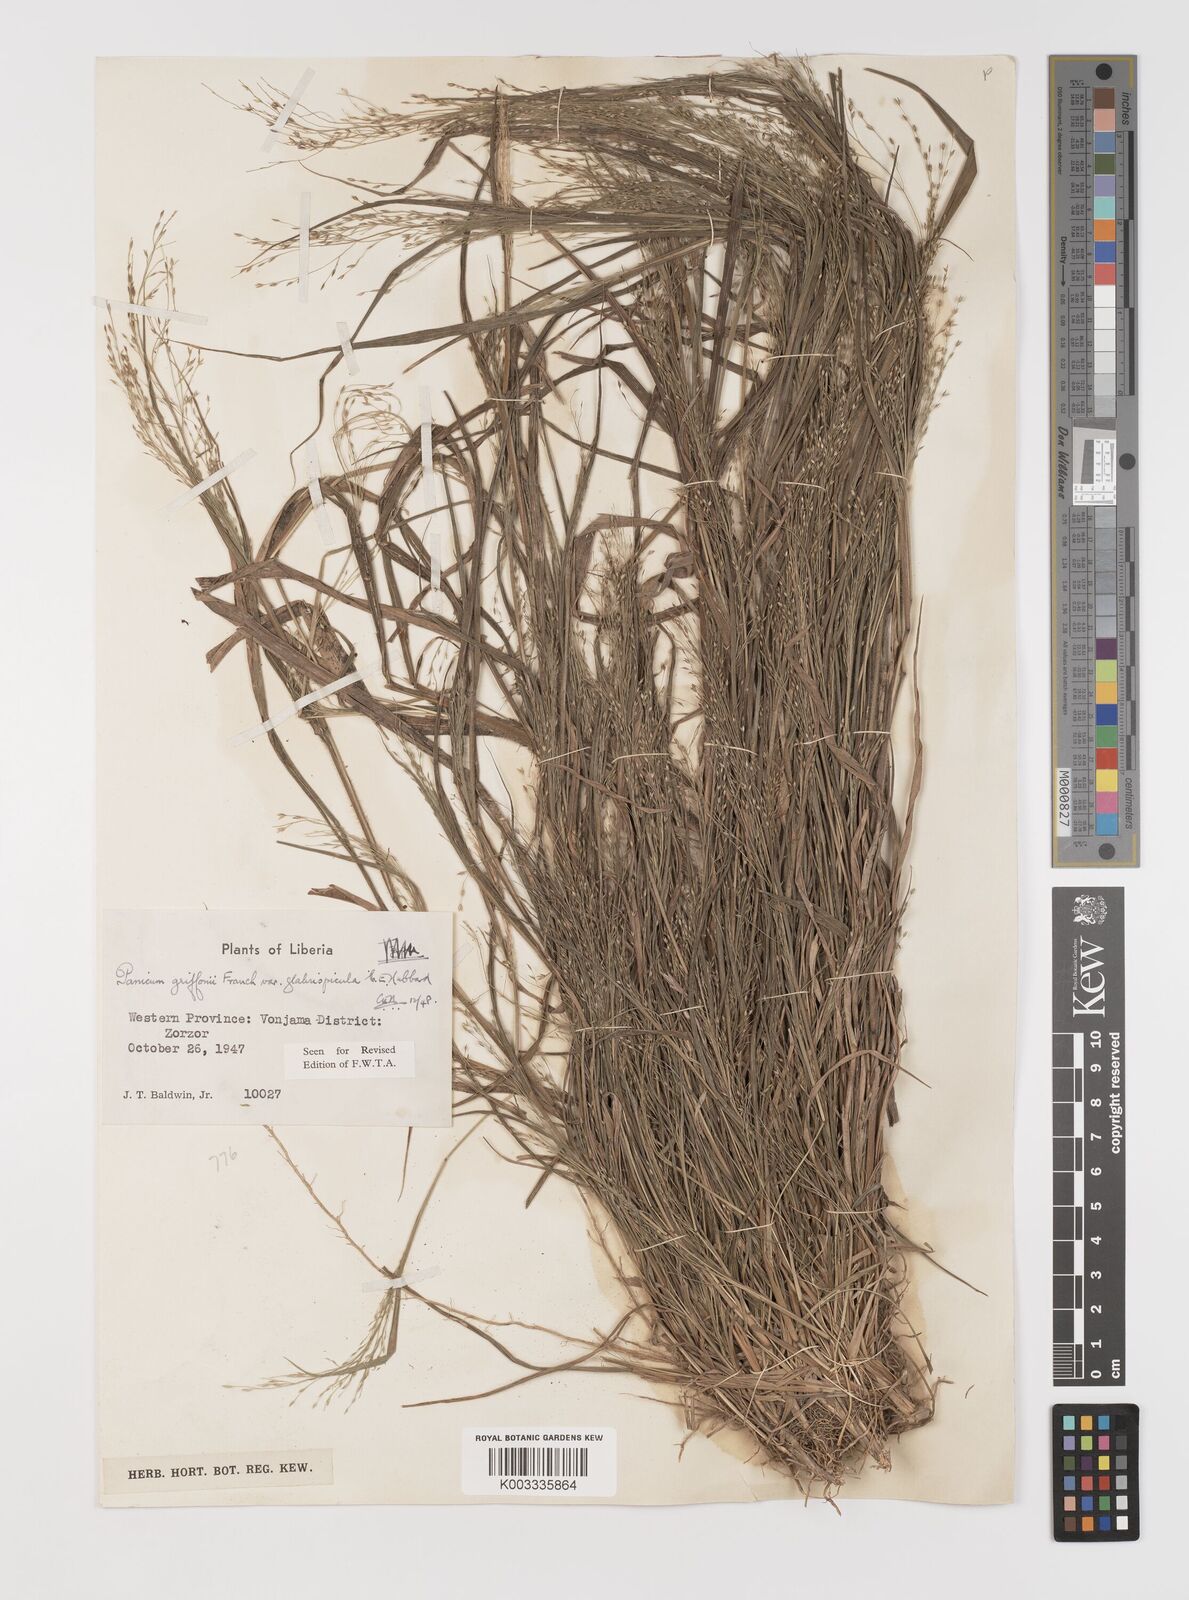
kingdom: Plantae
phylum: Tracheophyta
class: Liliopsida
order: Poales
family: Poaceae
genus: Panicum
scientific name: Panicum griffonii
